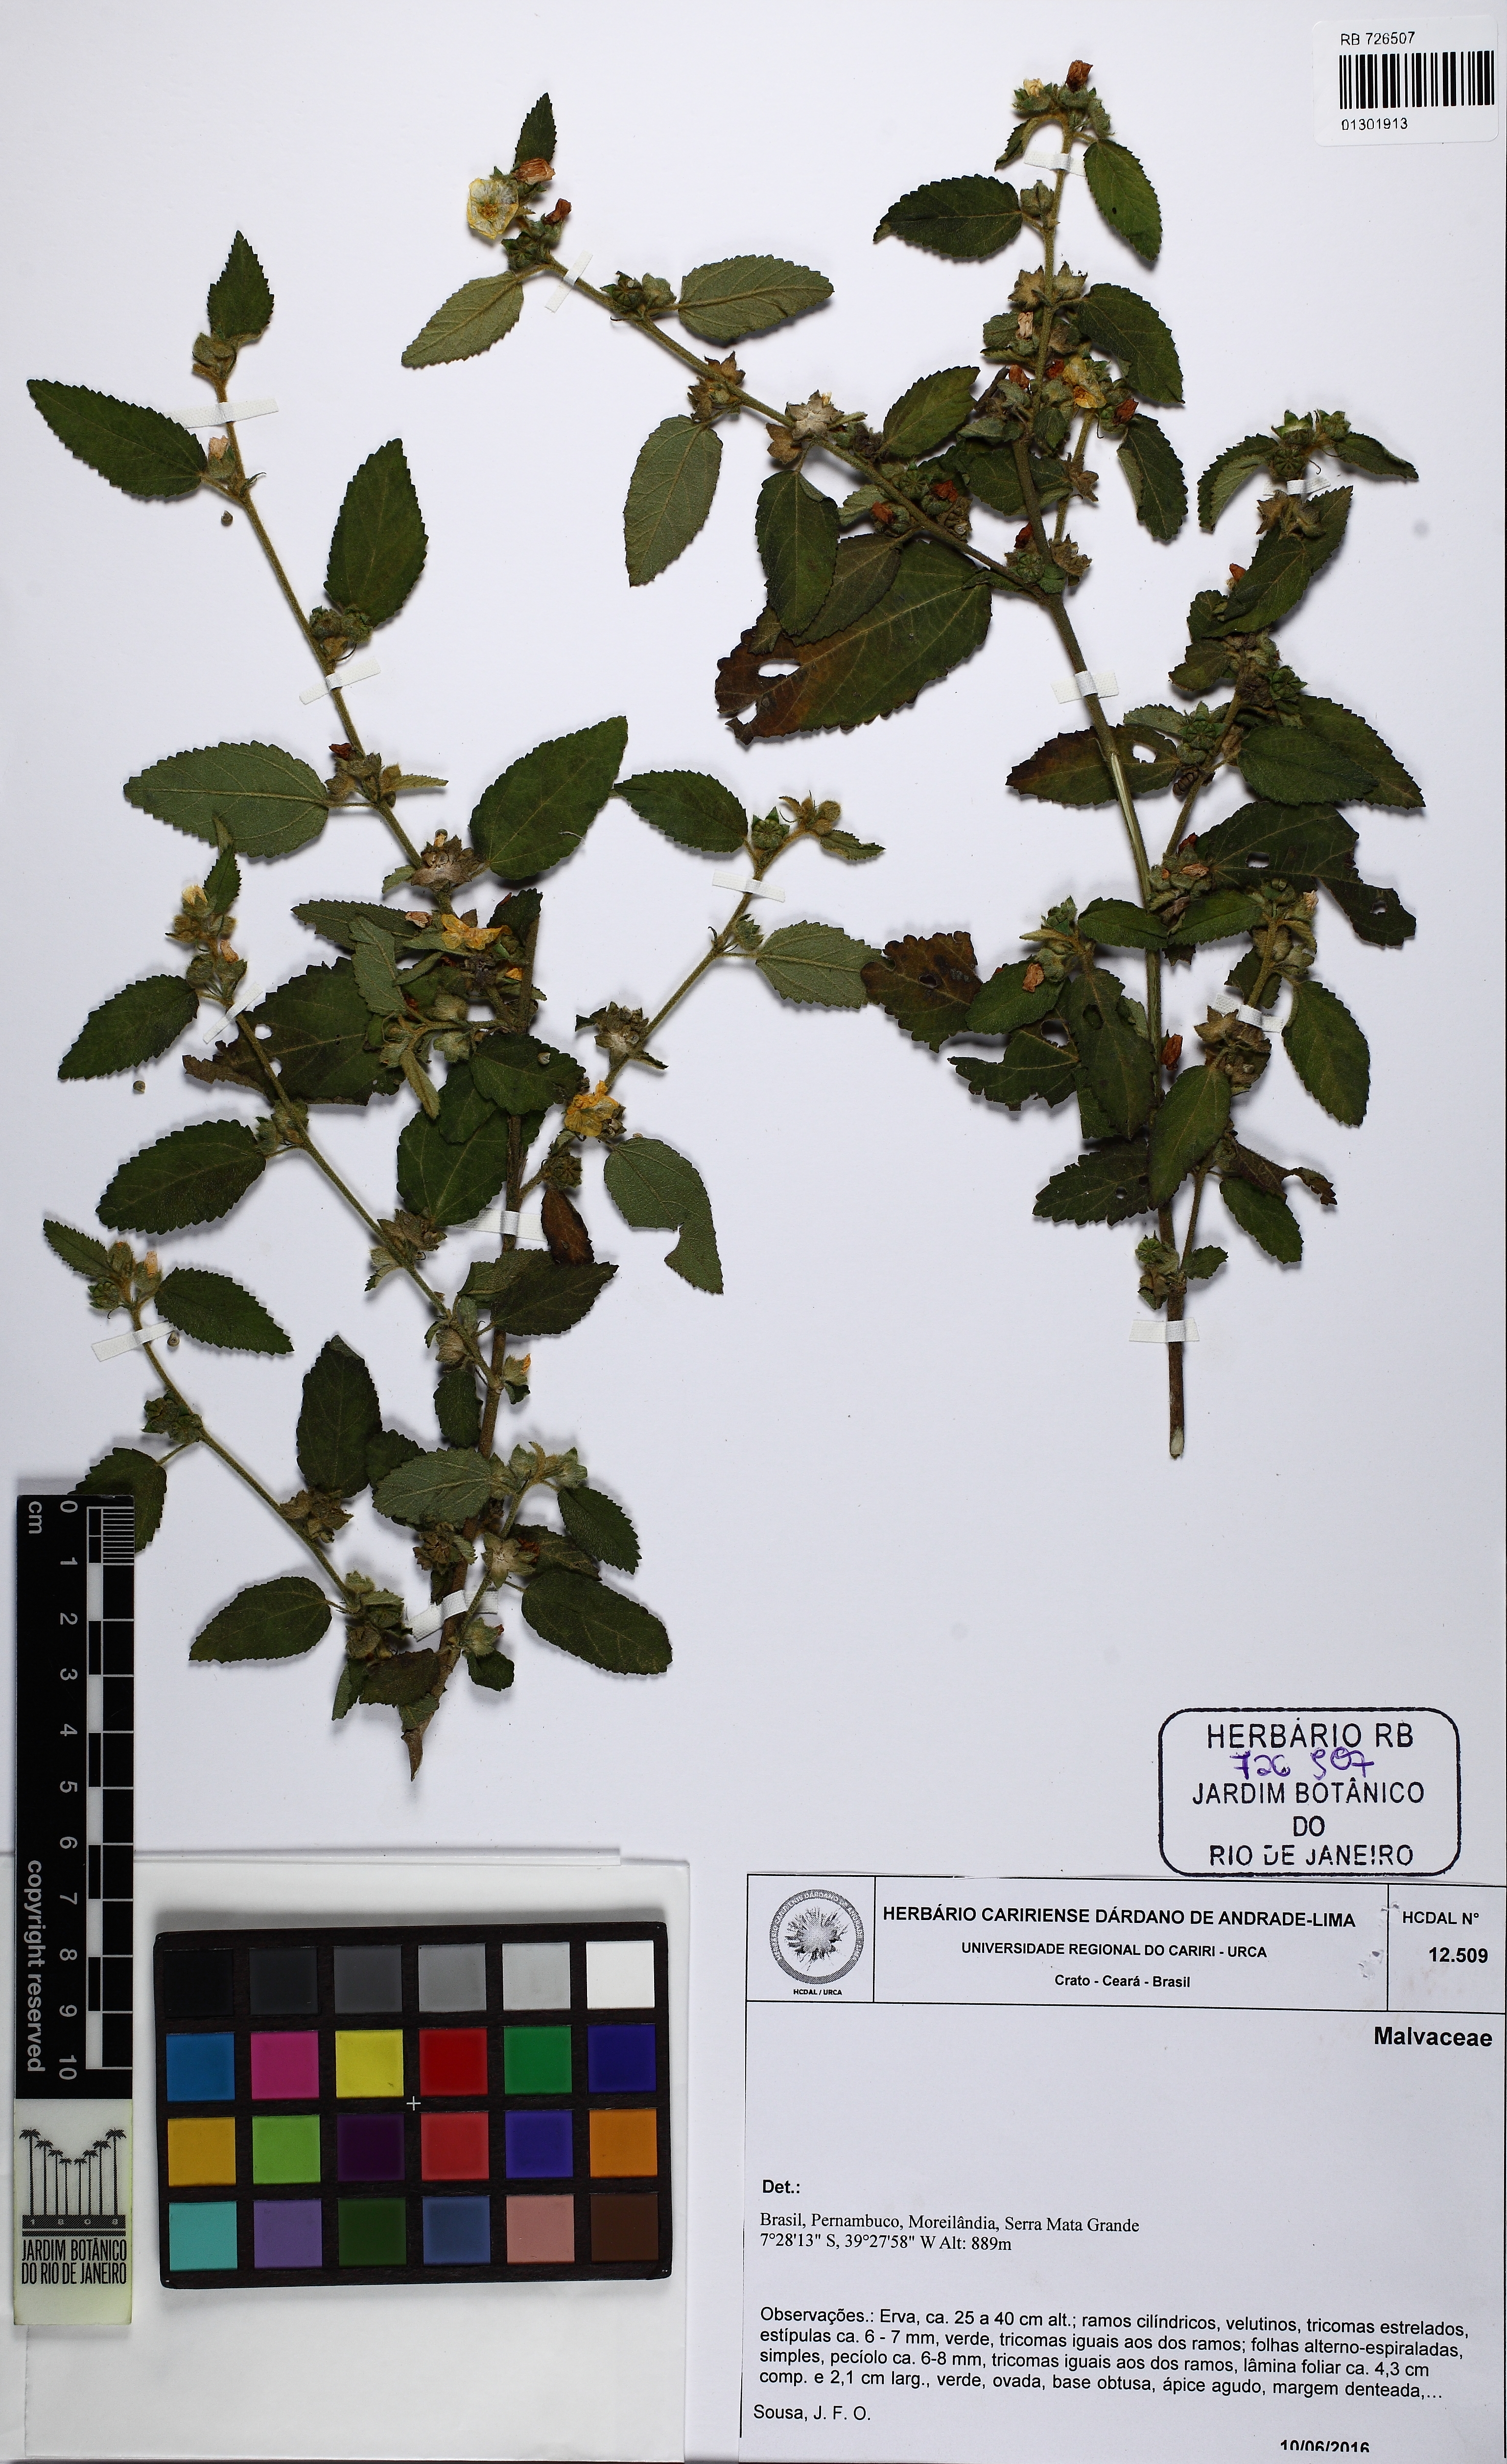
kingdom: Plantae
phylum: Tracheophyta
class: Magnoliopsida
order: Malvales
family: Malvaceae
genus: Sidastrum
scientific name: Sidastrum quinquenervium
